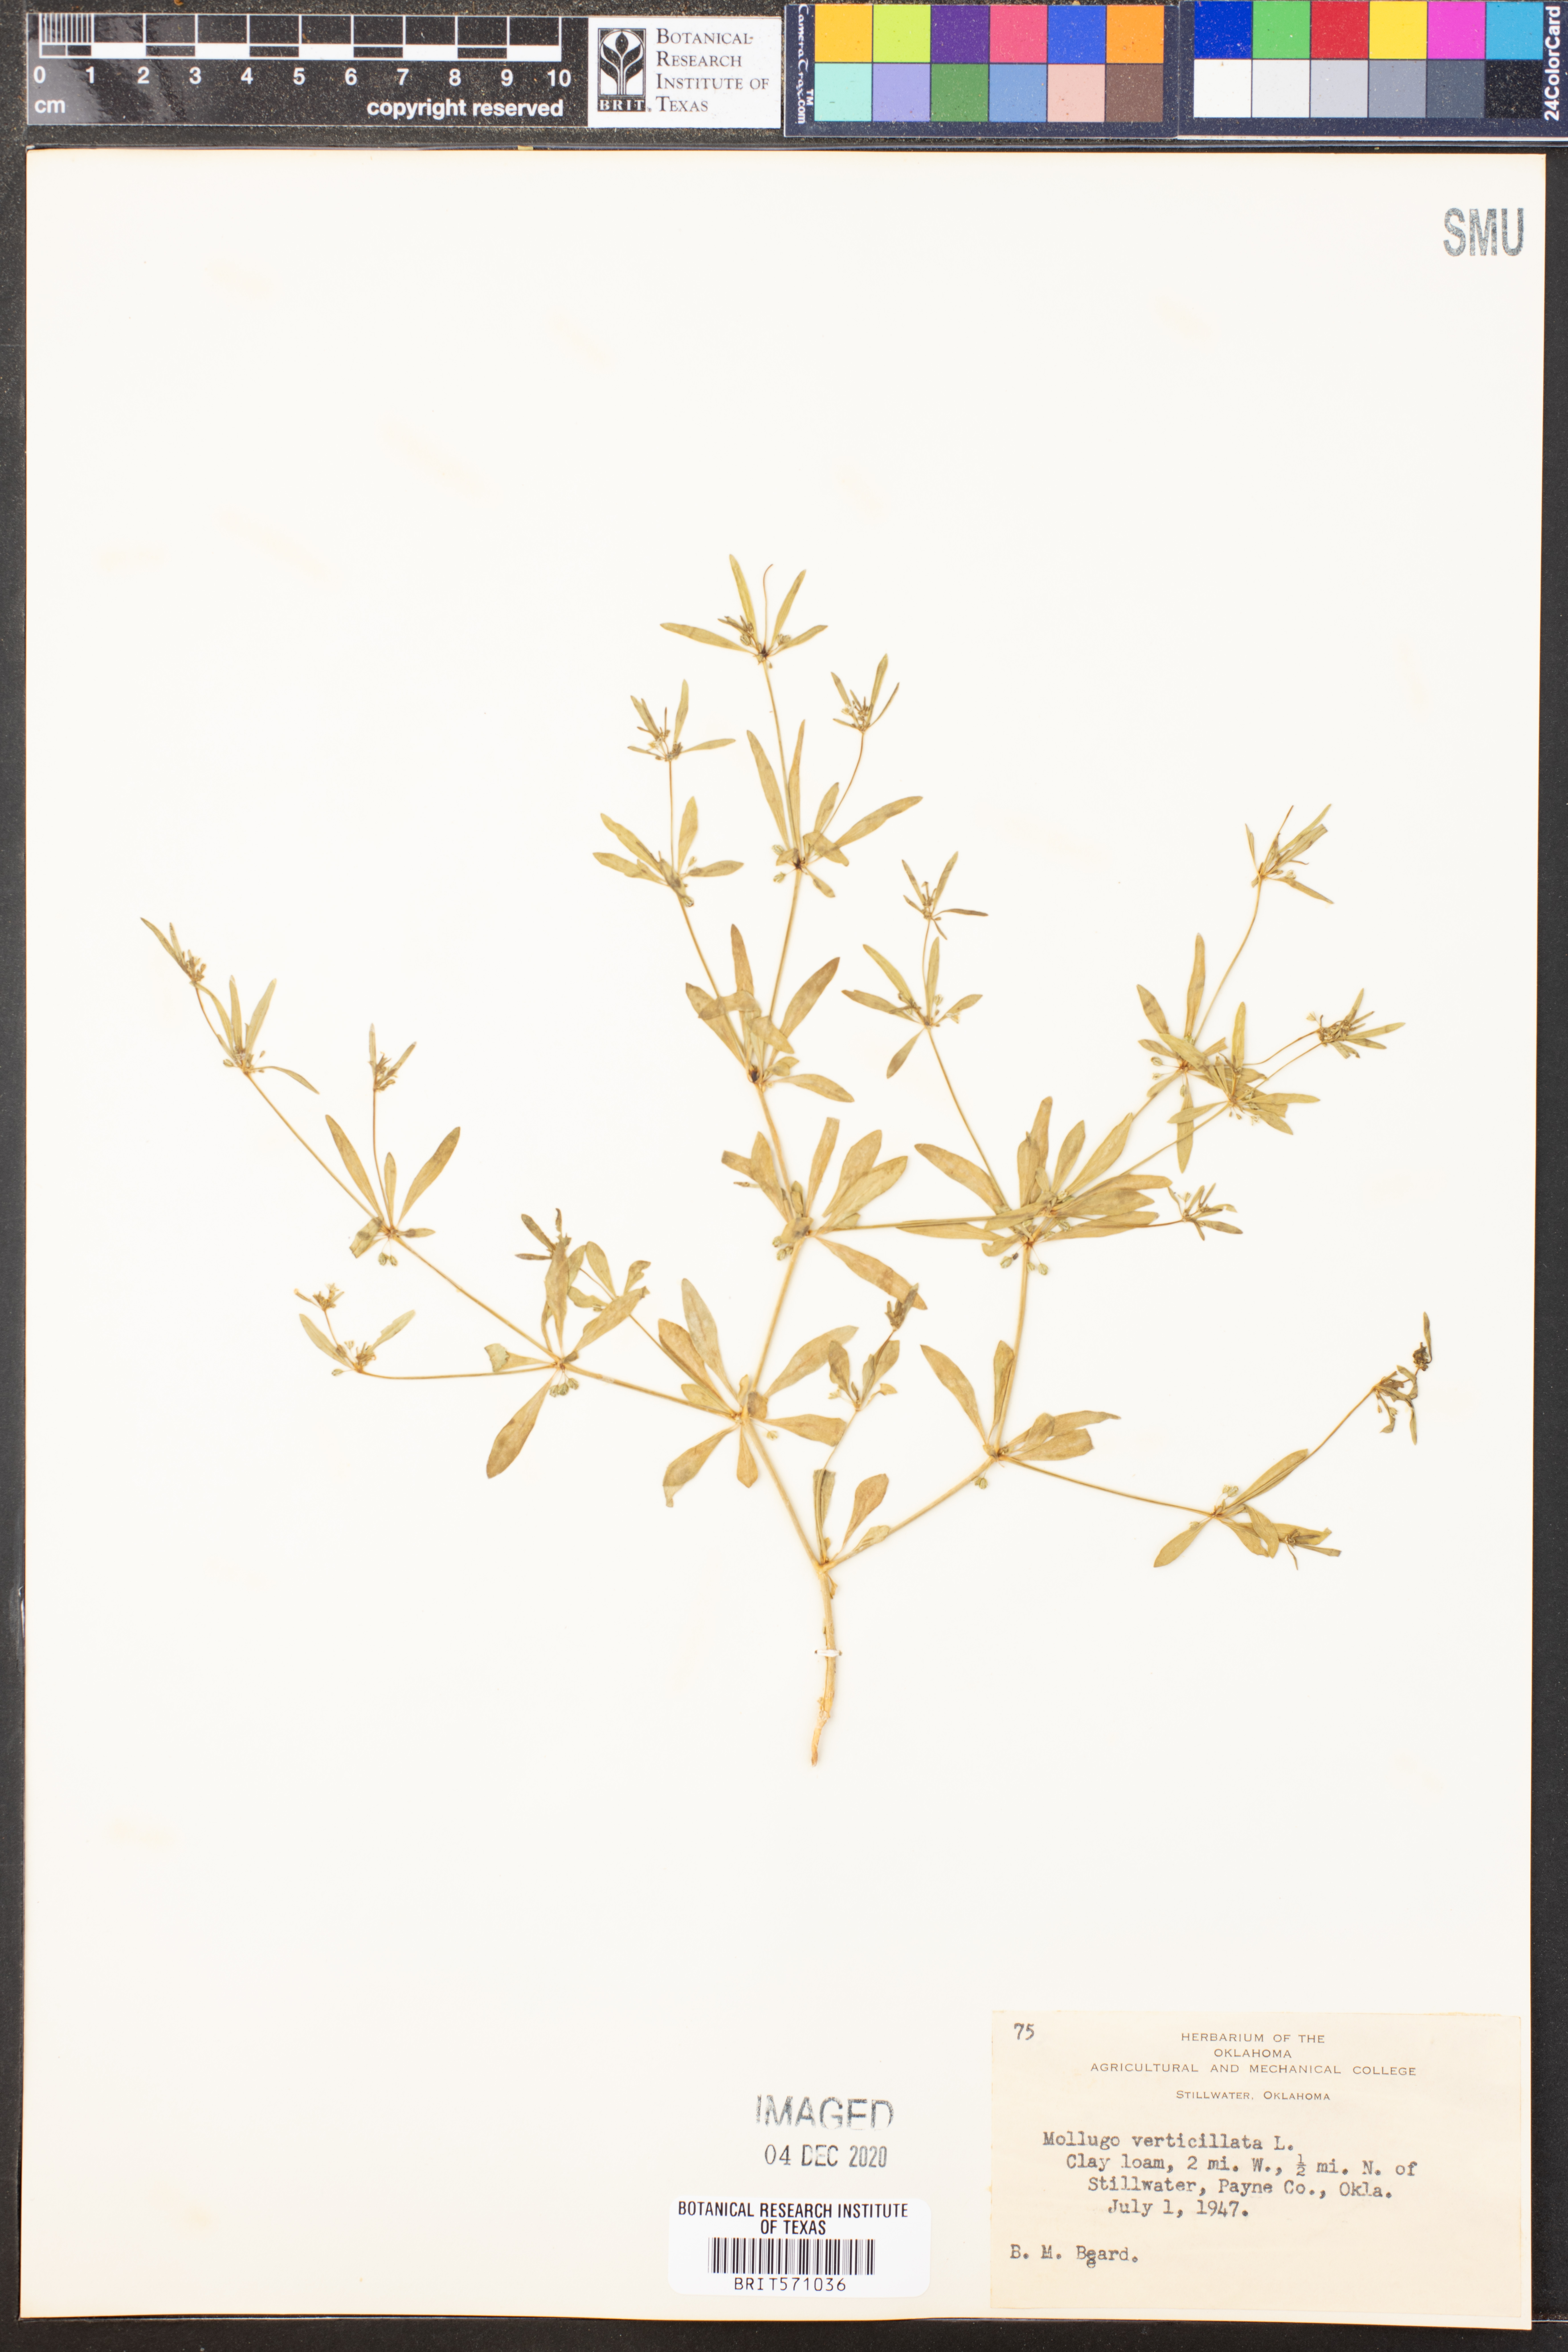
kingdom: Plantae
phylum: Tracheophyta
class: Magnoliopsida
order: Caryophyllales
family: Molluginaceae
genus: Mollugo
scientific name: Mollugo verticillata
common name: Green carpetweed
